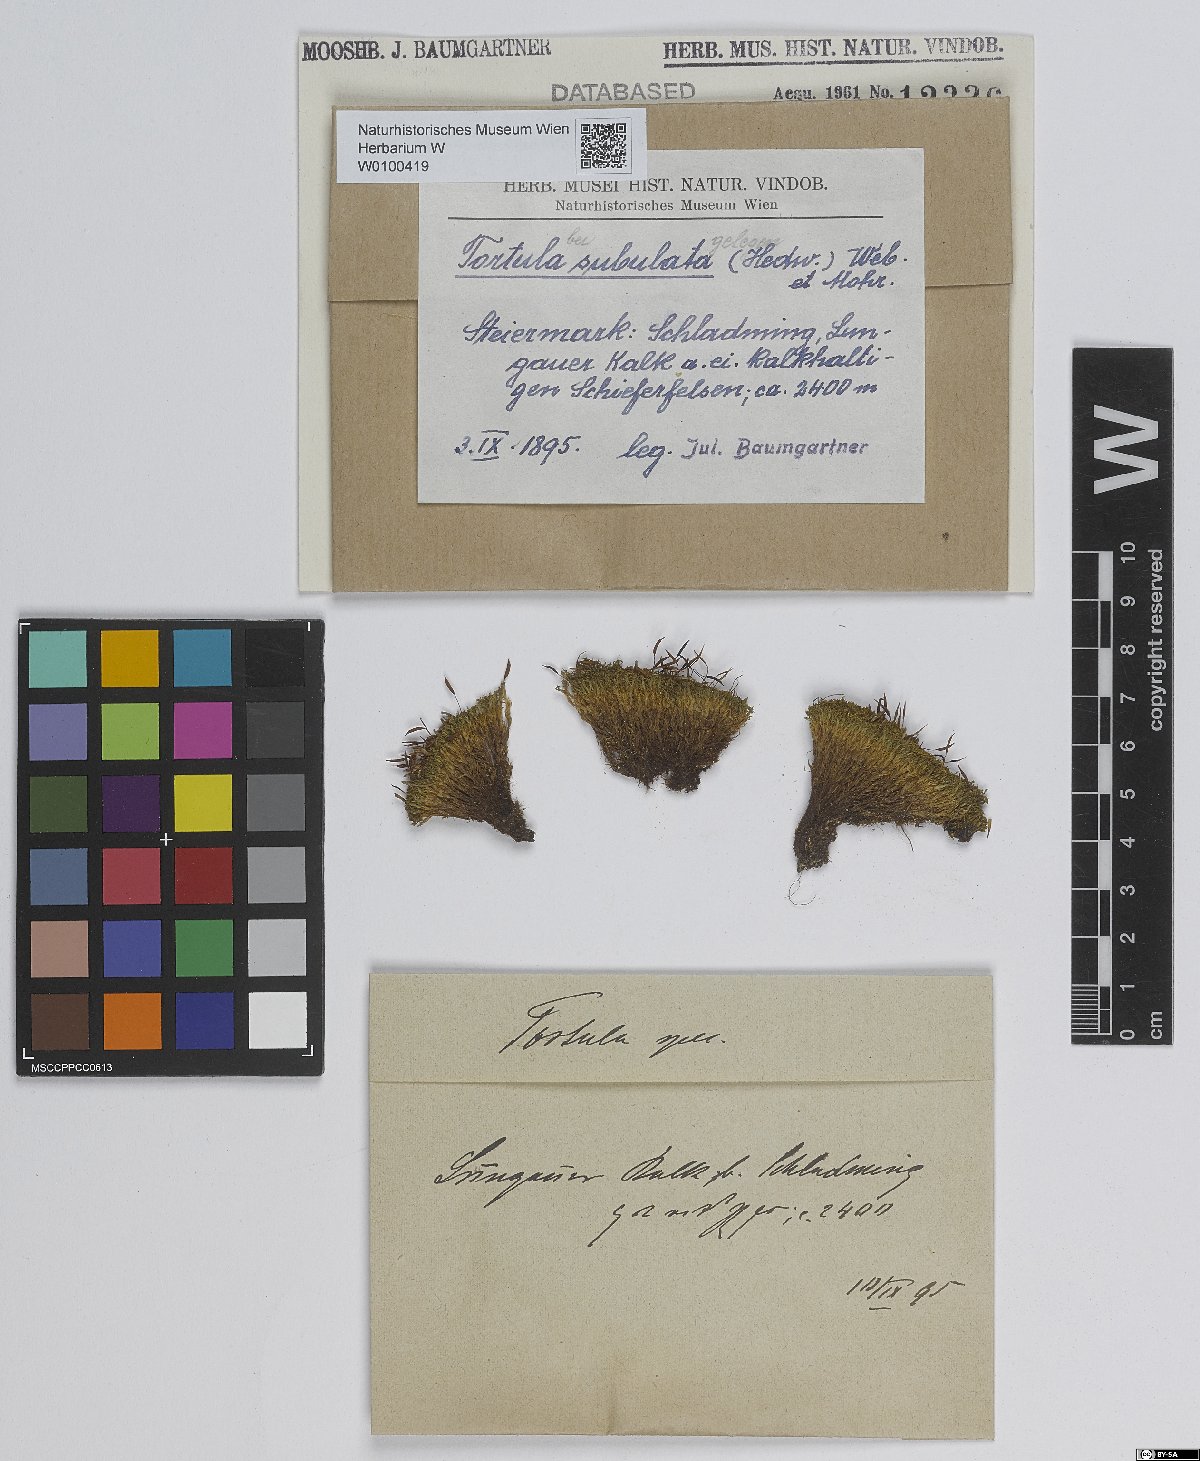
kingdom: Plantae
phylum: Bryophyta
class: Bryopsida
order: Pottiales
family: Pottiaceae
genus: Tortula
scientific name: Tortula subulata
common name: Upright screw-moss
